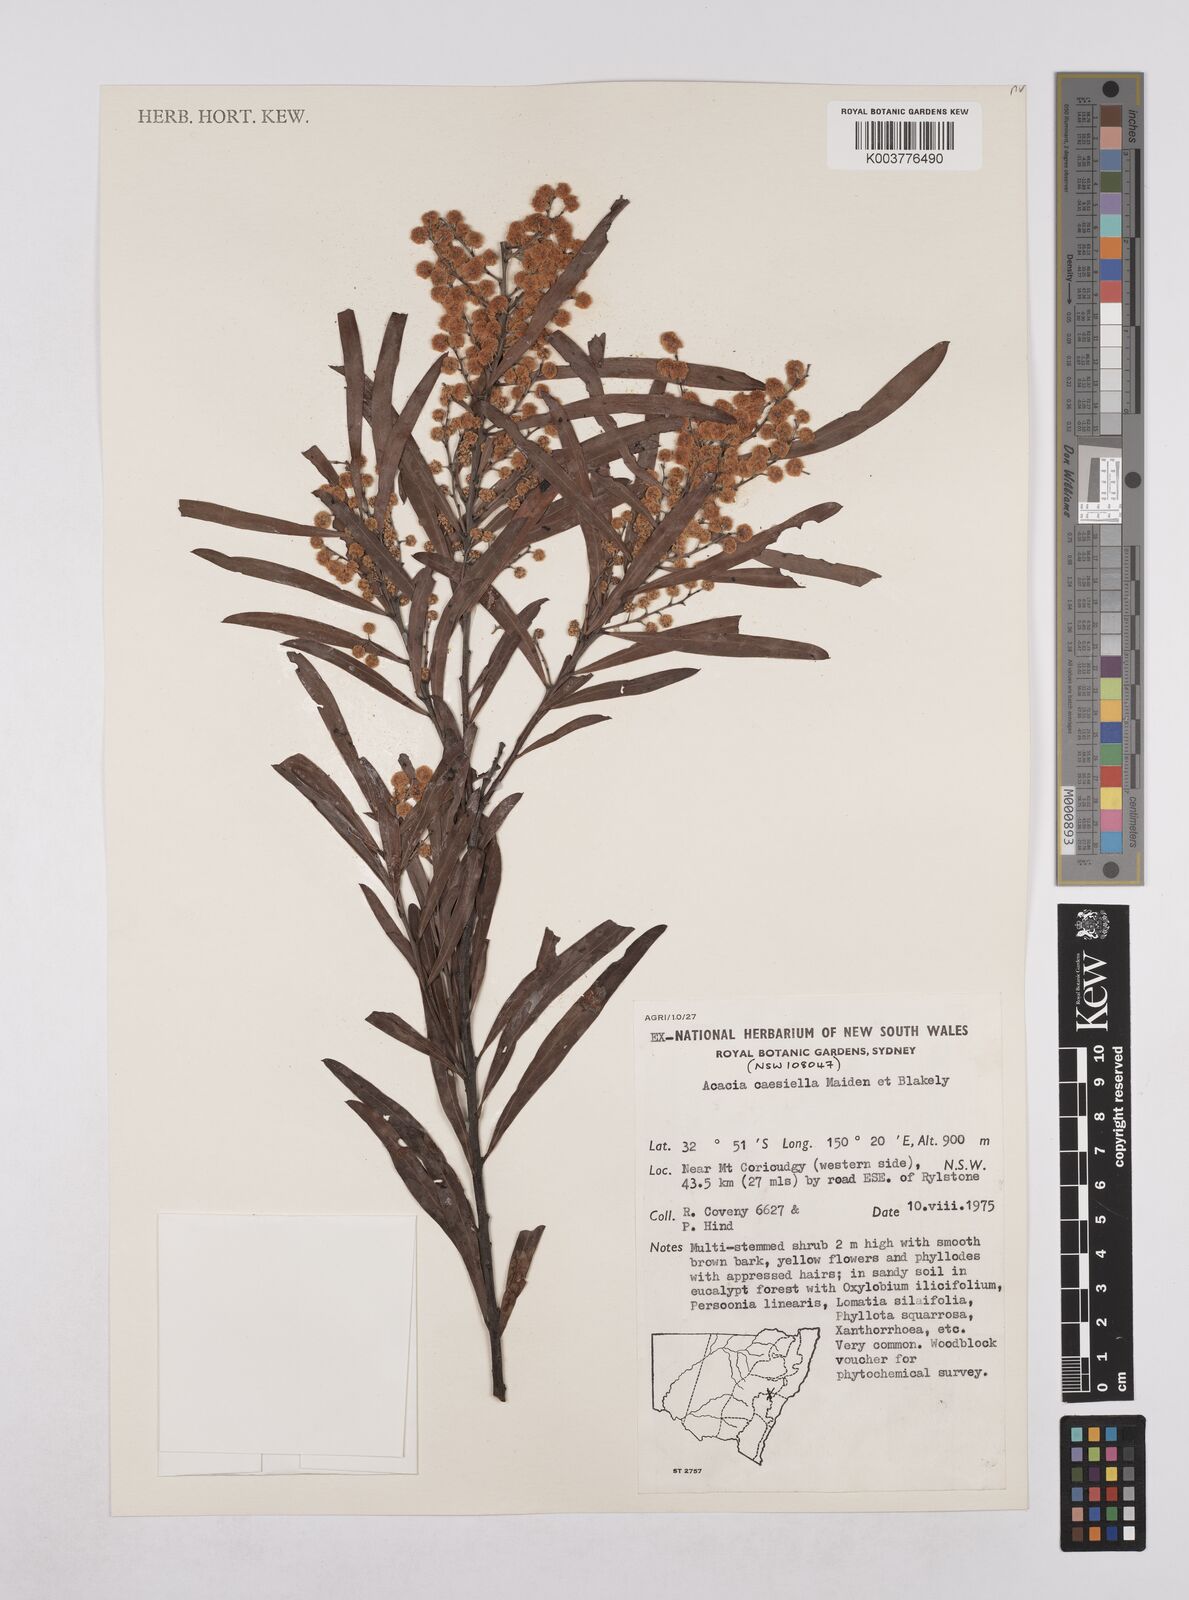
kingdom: Plantae
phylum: Tracheophyta
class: Magnoliopsida
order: Fabales
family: Fabaceae
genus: Acacia
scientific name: Acacia caesiella
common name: Tableland wattle
